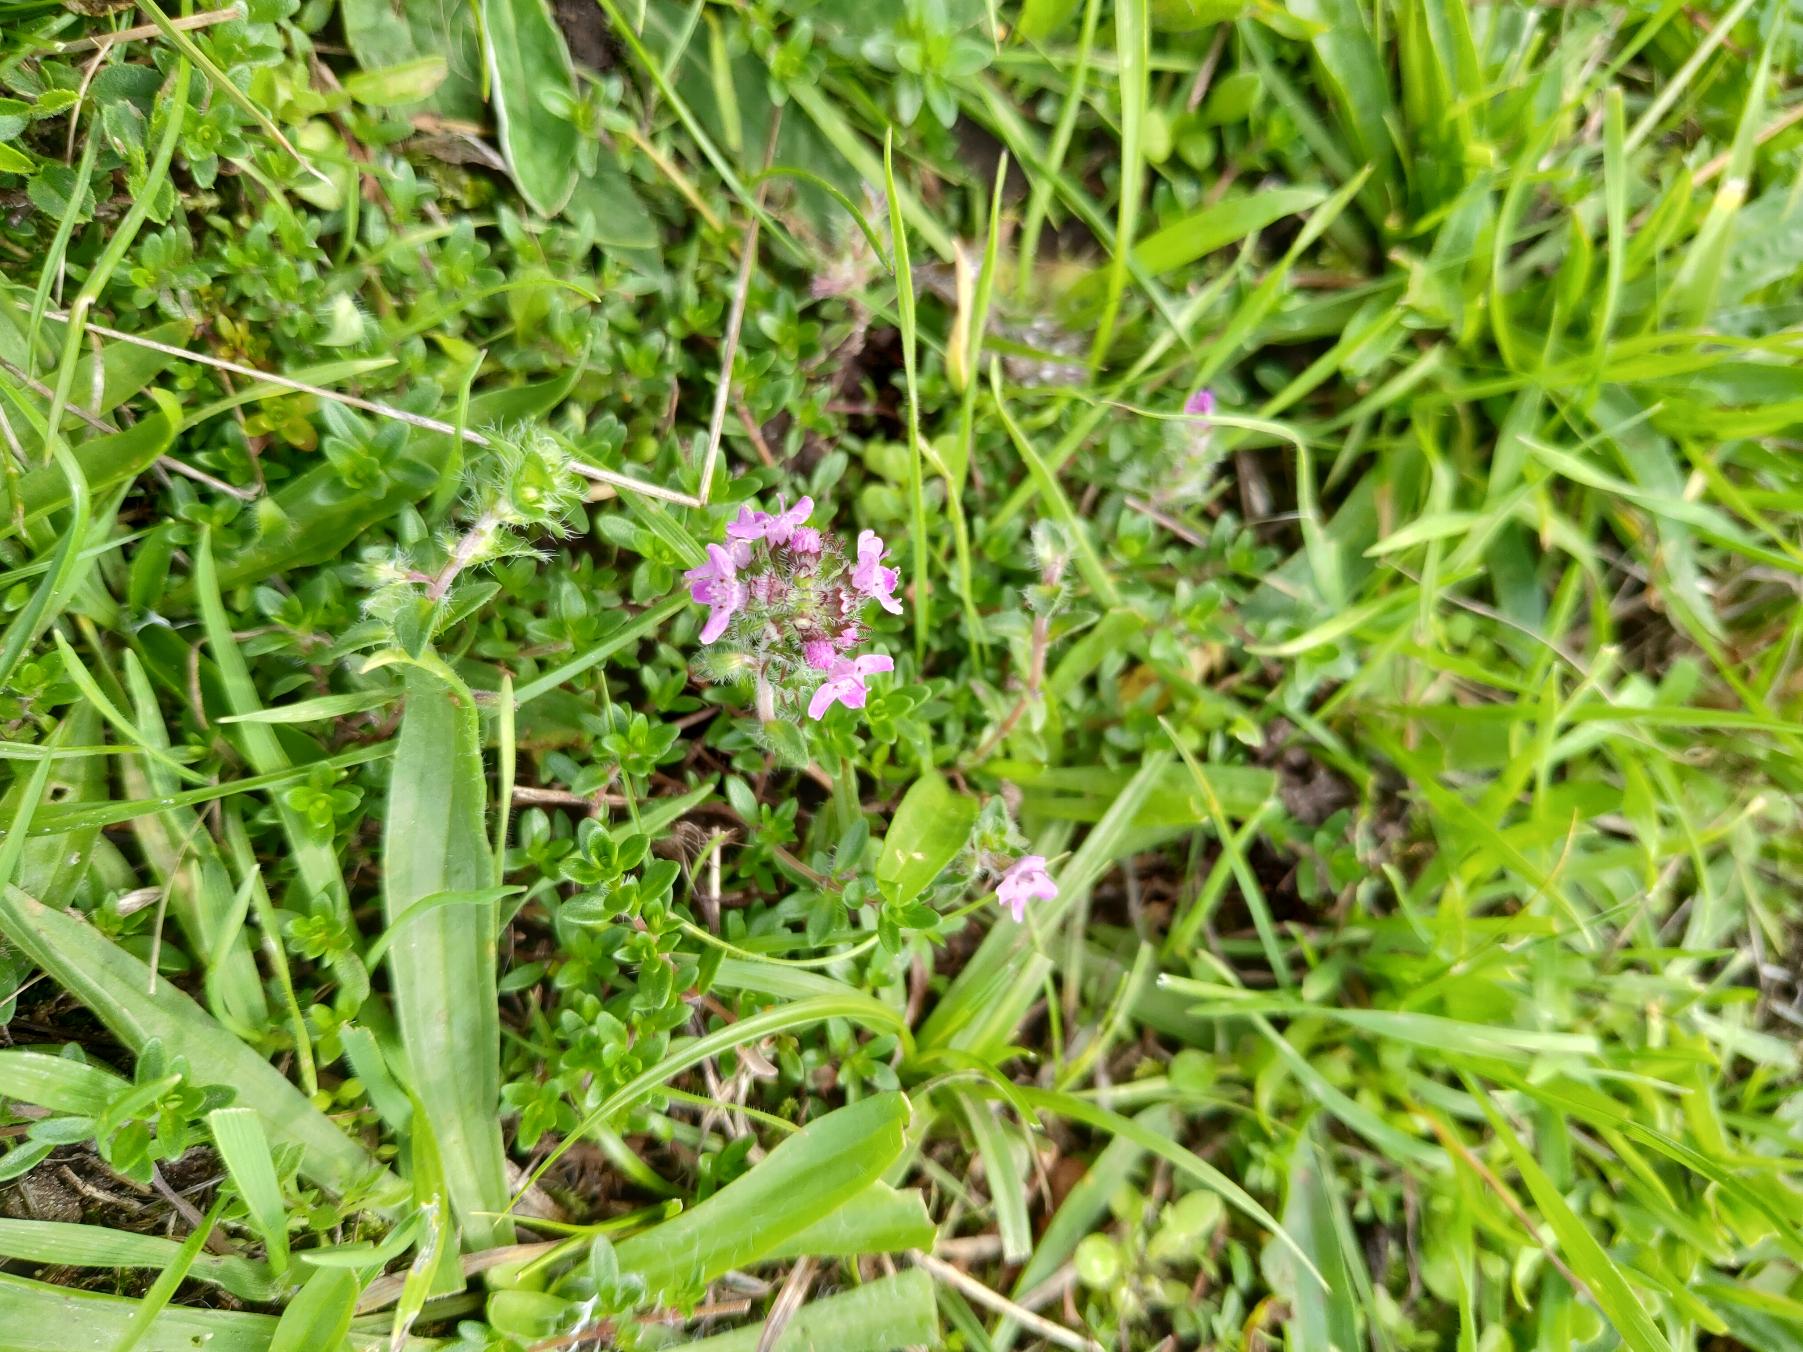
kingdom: Plantae
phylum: Tracheophyta
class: Magnoliopsida
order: Lamiales
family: Lamiaceae
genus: Thymus
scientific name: Thymus serpyllum
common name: Smalbladet timian
